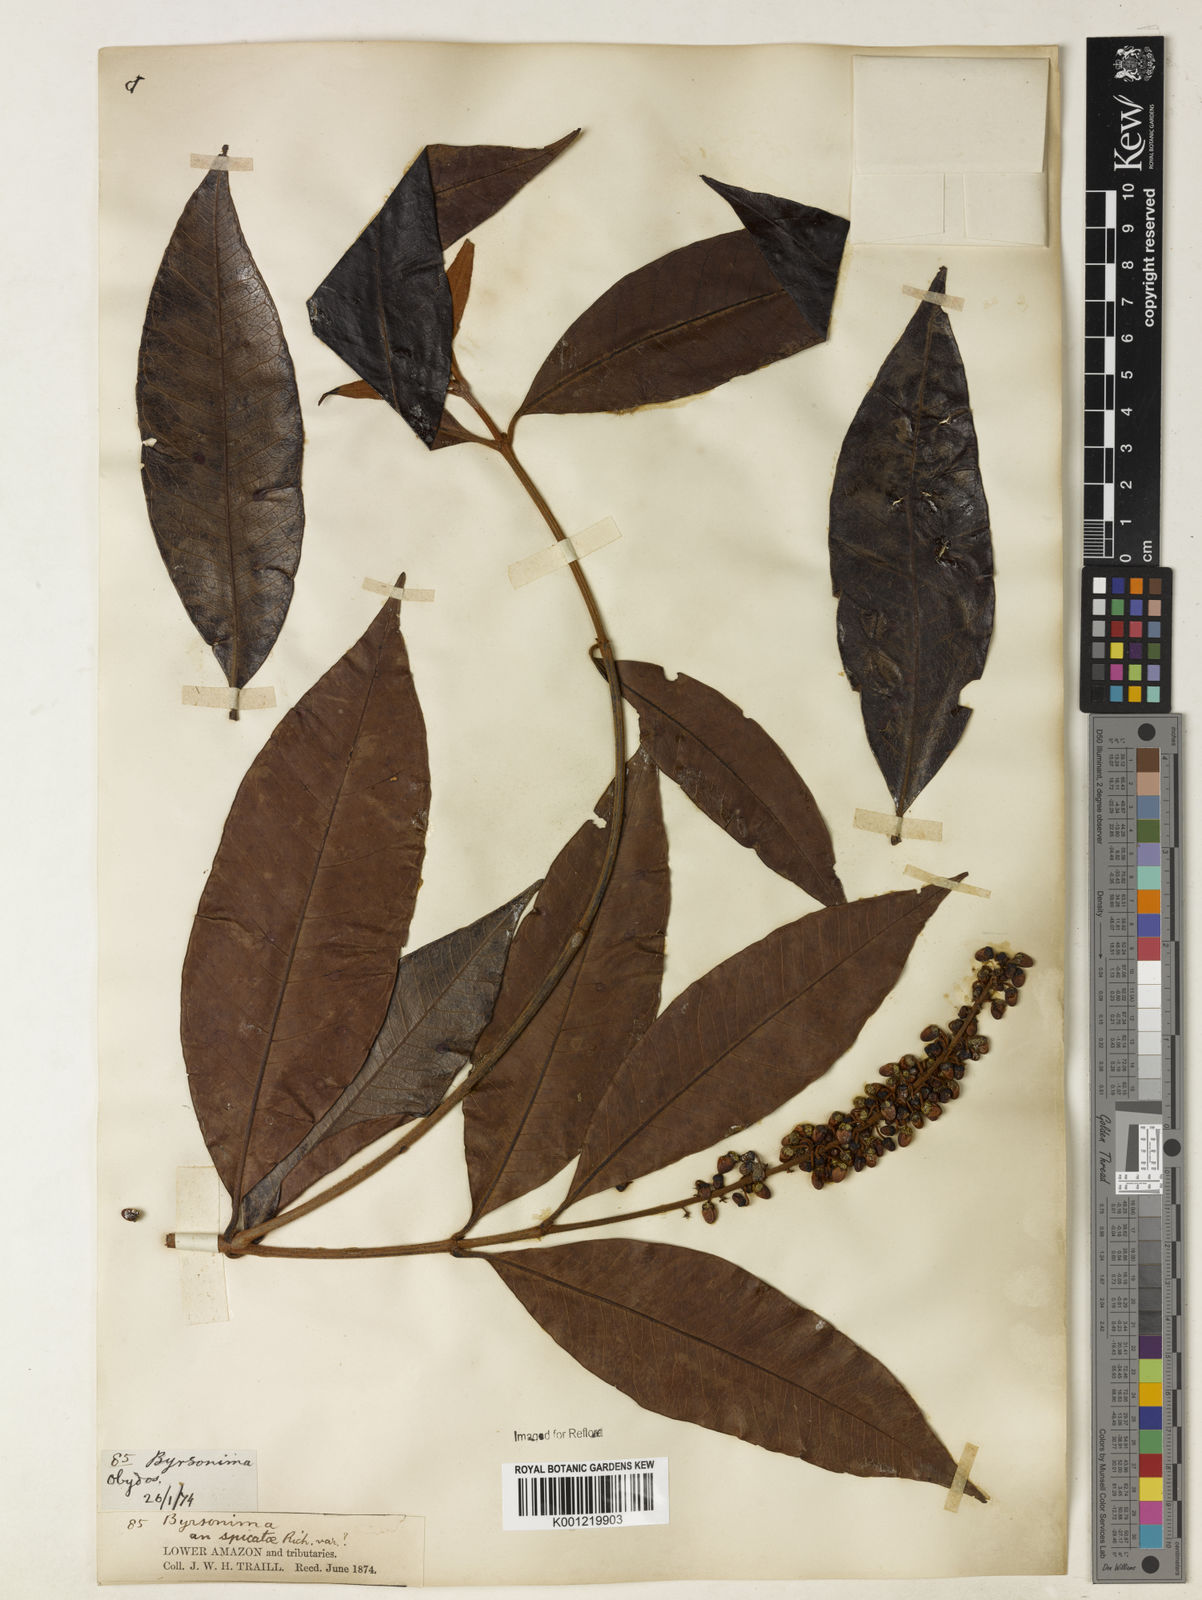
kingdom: Plantae
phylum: Tracheophyta
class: Magnoliopsida
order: Malpighiales
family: Malpighiaceae
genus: Byrsonima
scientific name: Byrsonima
